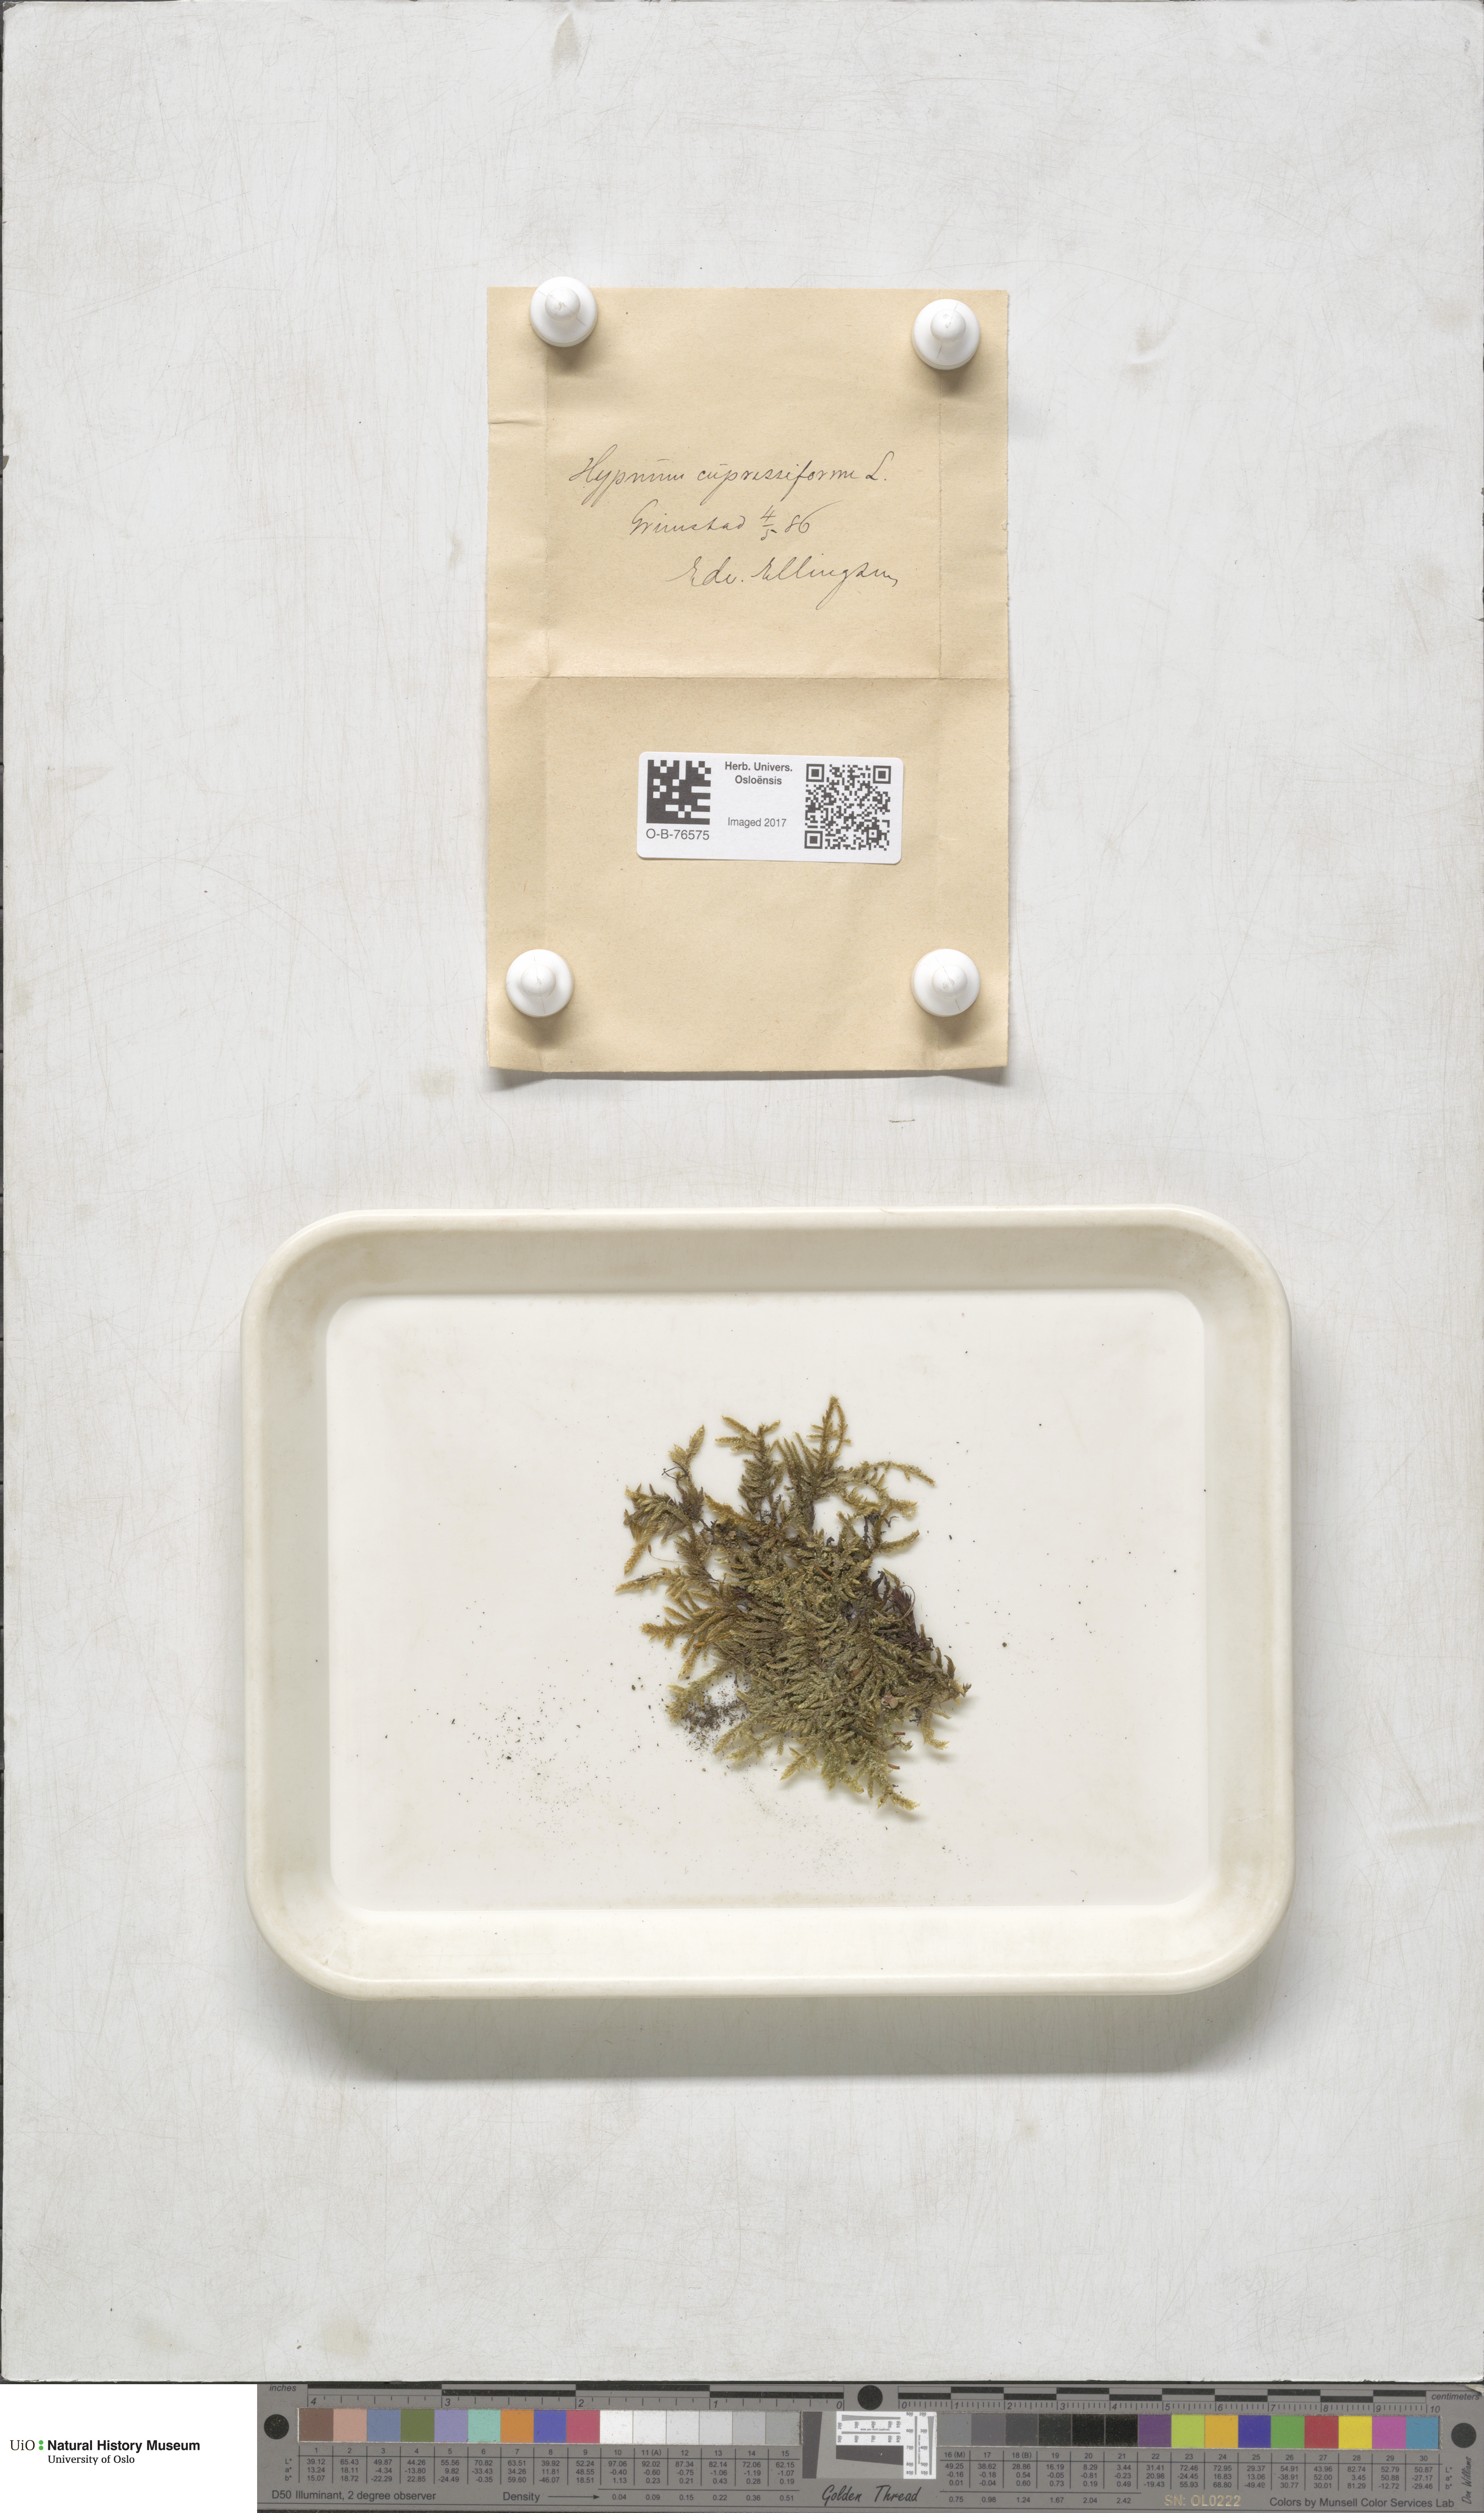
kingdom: Plantae
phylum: Bryophyta
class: Bryopsida
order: Hypnales
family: Hypnaceae
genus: Hypnum
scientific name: Hypnum cupressiforme
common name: Cypress-leaved plait-moss
